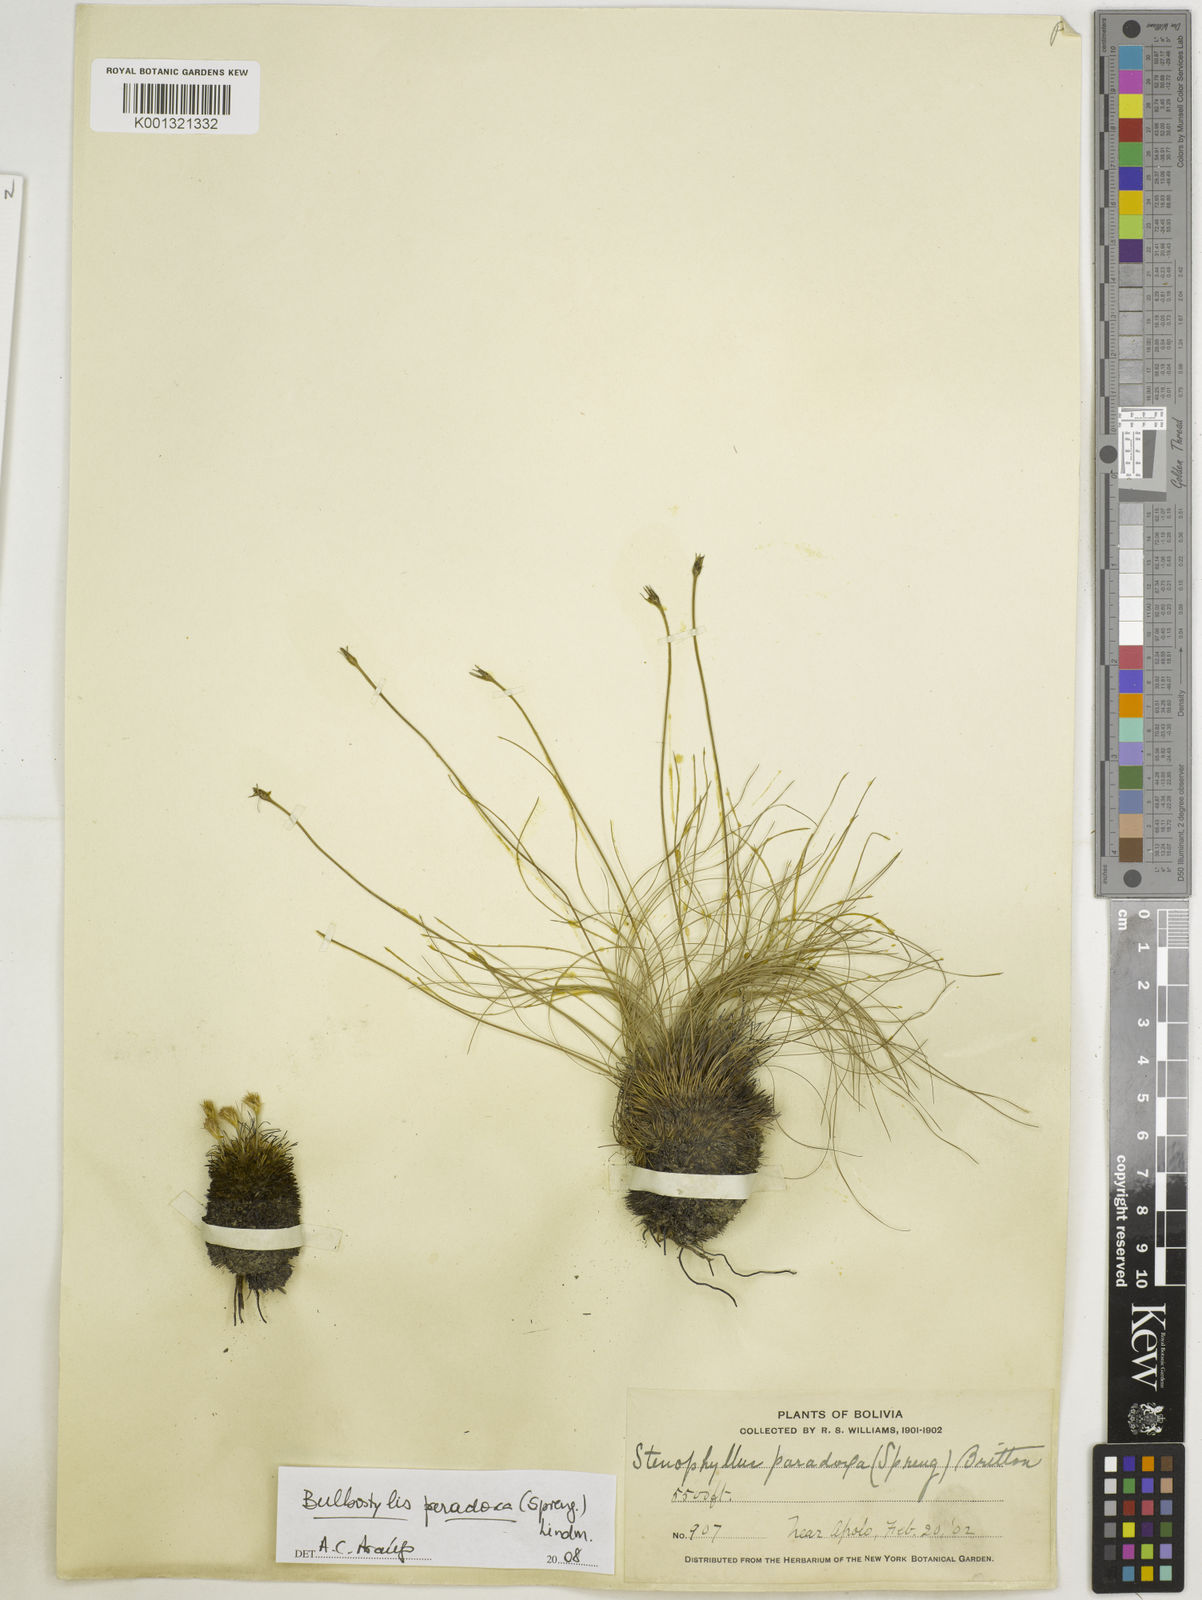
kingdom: Plantae
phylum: Tracheophyta
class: Liliopsida
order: Poales
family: Cyperaceae
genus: Bulbostylis
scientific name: Bulbostylis paradoxa
